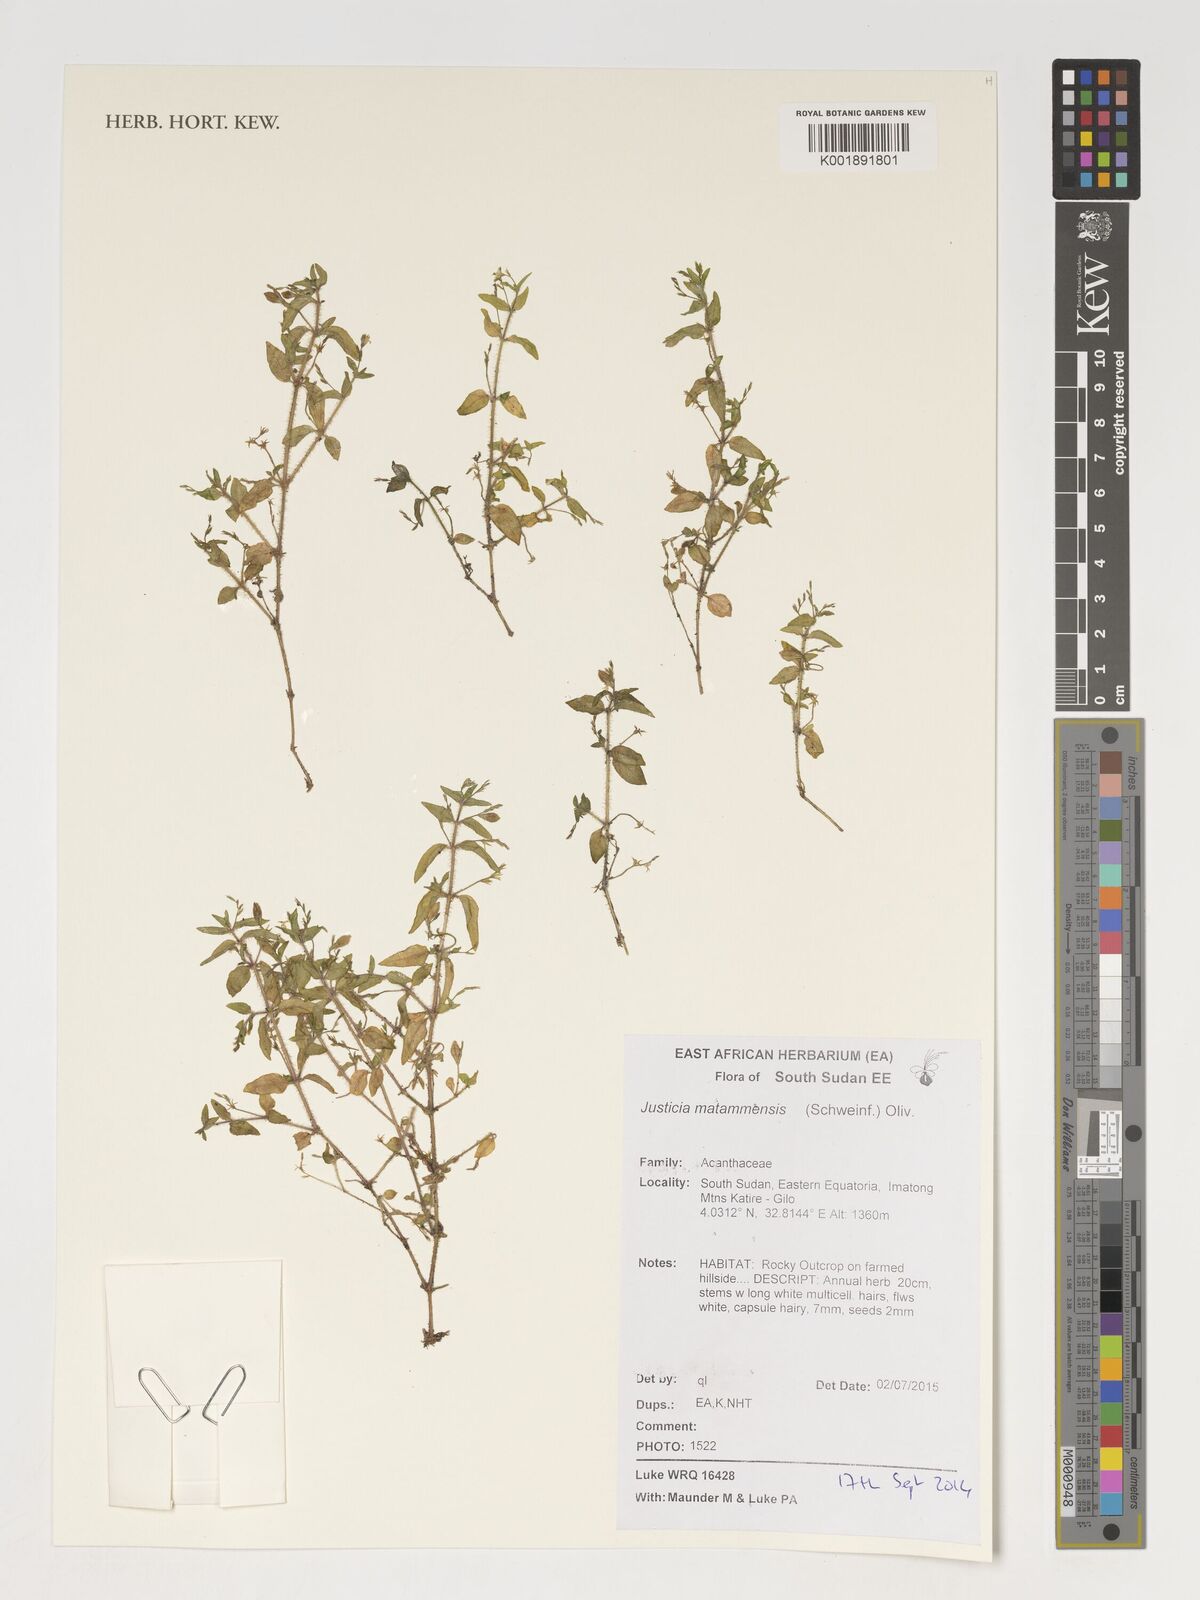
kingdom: Plantae
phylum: Tracheophyta
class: Magnoliopsida
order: Asterales
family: Asteraceae
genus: Crassocephalum
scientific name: Crassocephalum bauchiense
